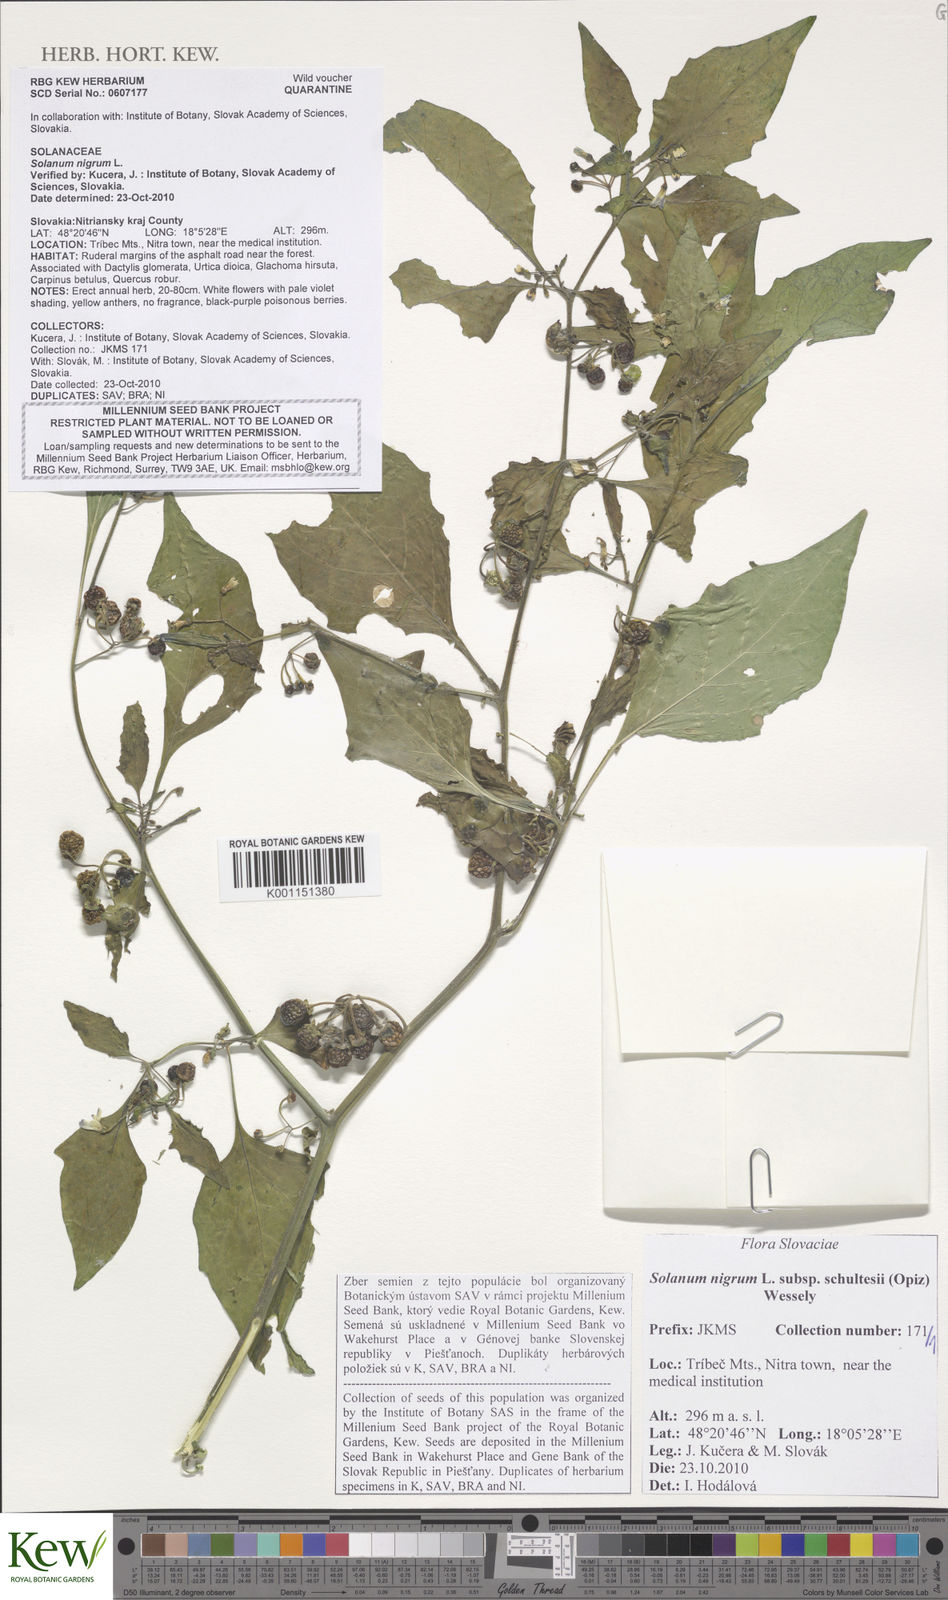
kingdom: Plantae
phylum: Tracheophyta
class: Magnoliopsida
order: Solanales
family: Solanaceae
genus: Solanum
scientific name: Solanum decipiens
